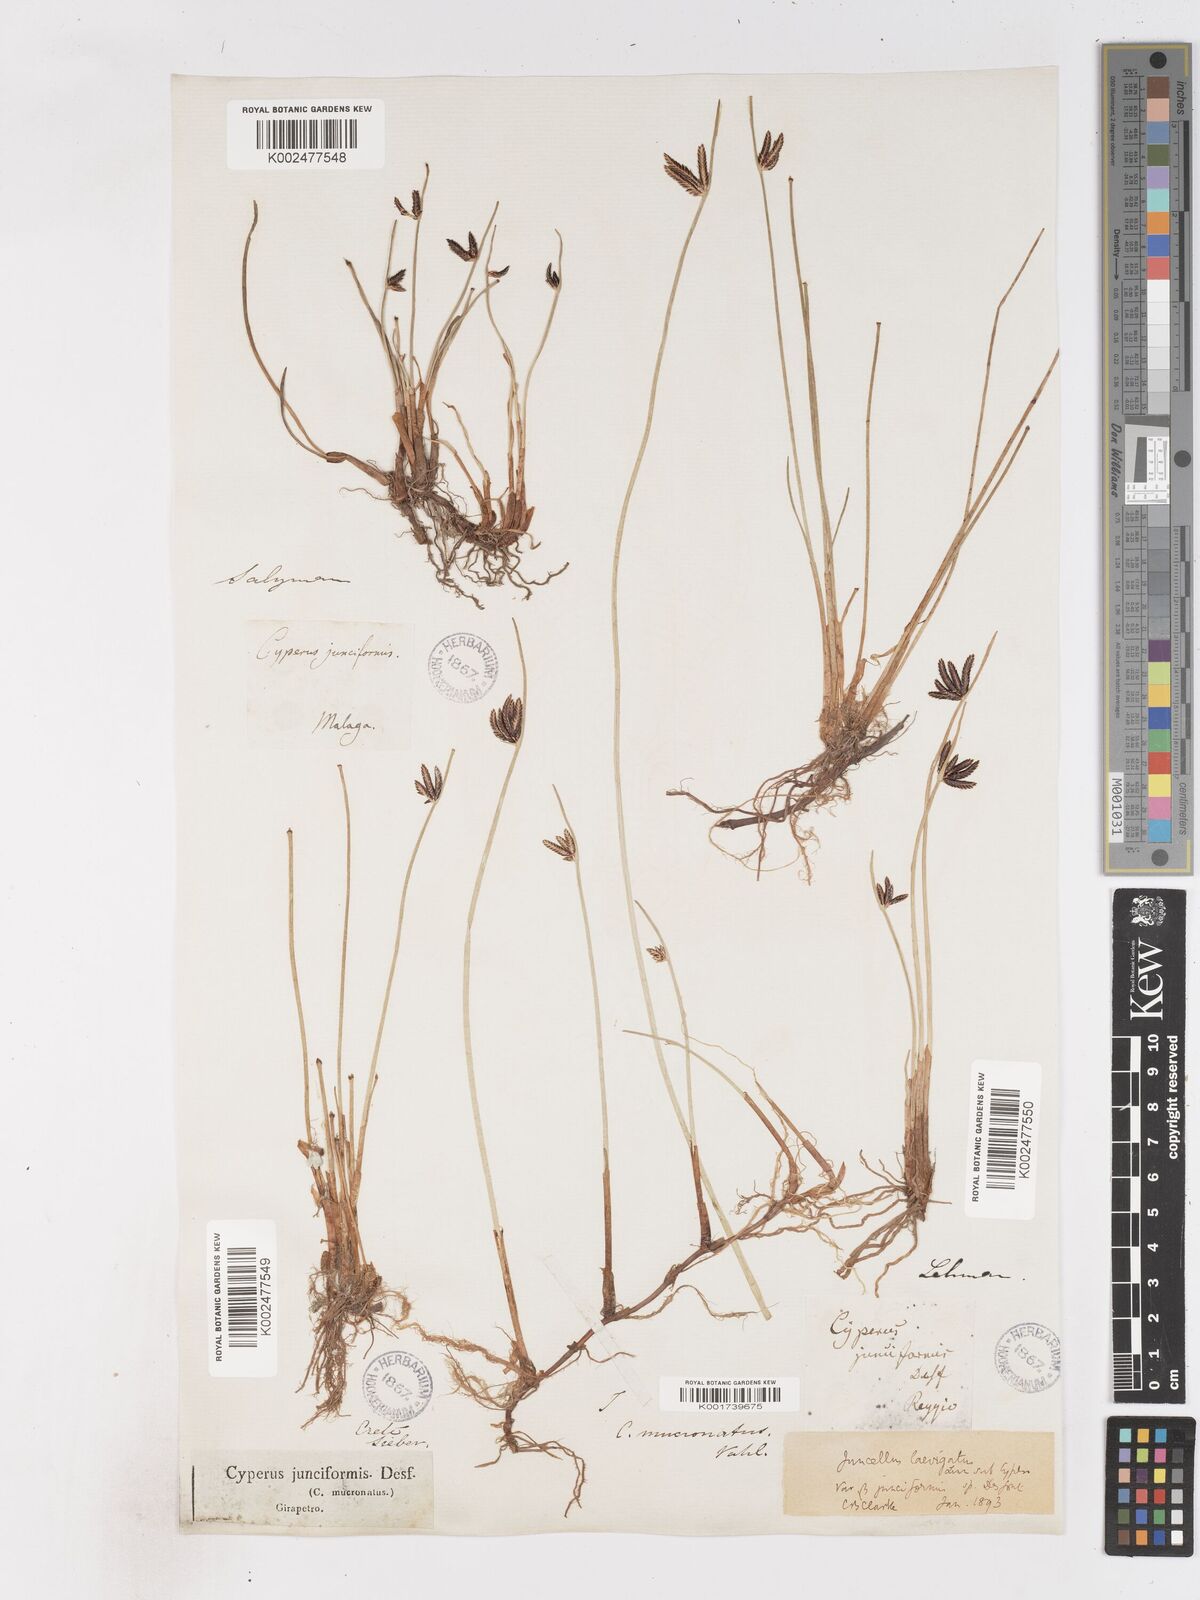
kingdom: Plantae
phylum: Tracheophyta
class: Liliopsida
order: Poales
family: Cyperaceae
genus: Cyperus
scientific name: Cyperus laevigatus
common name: Smooth flat sedge
